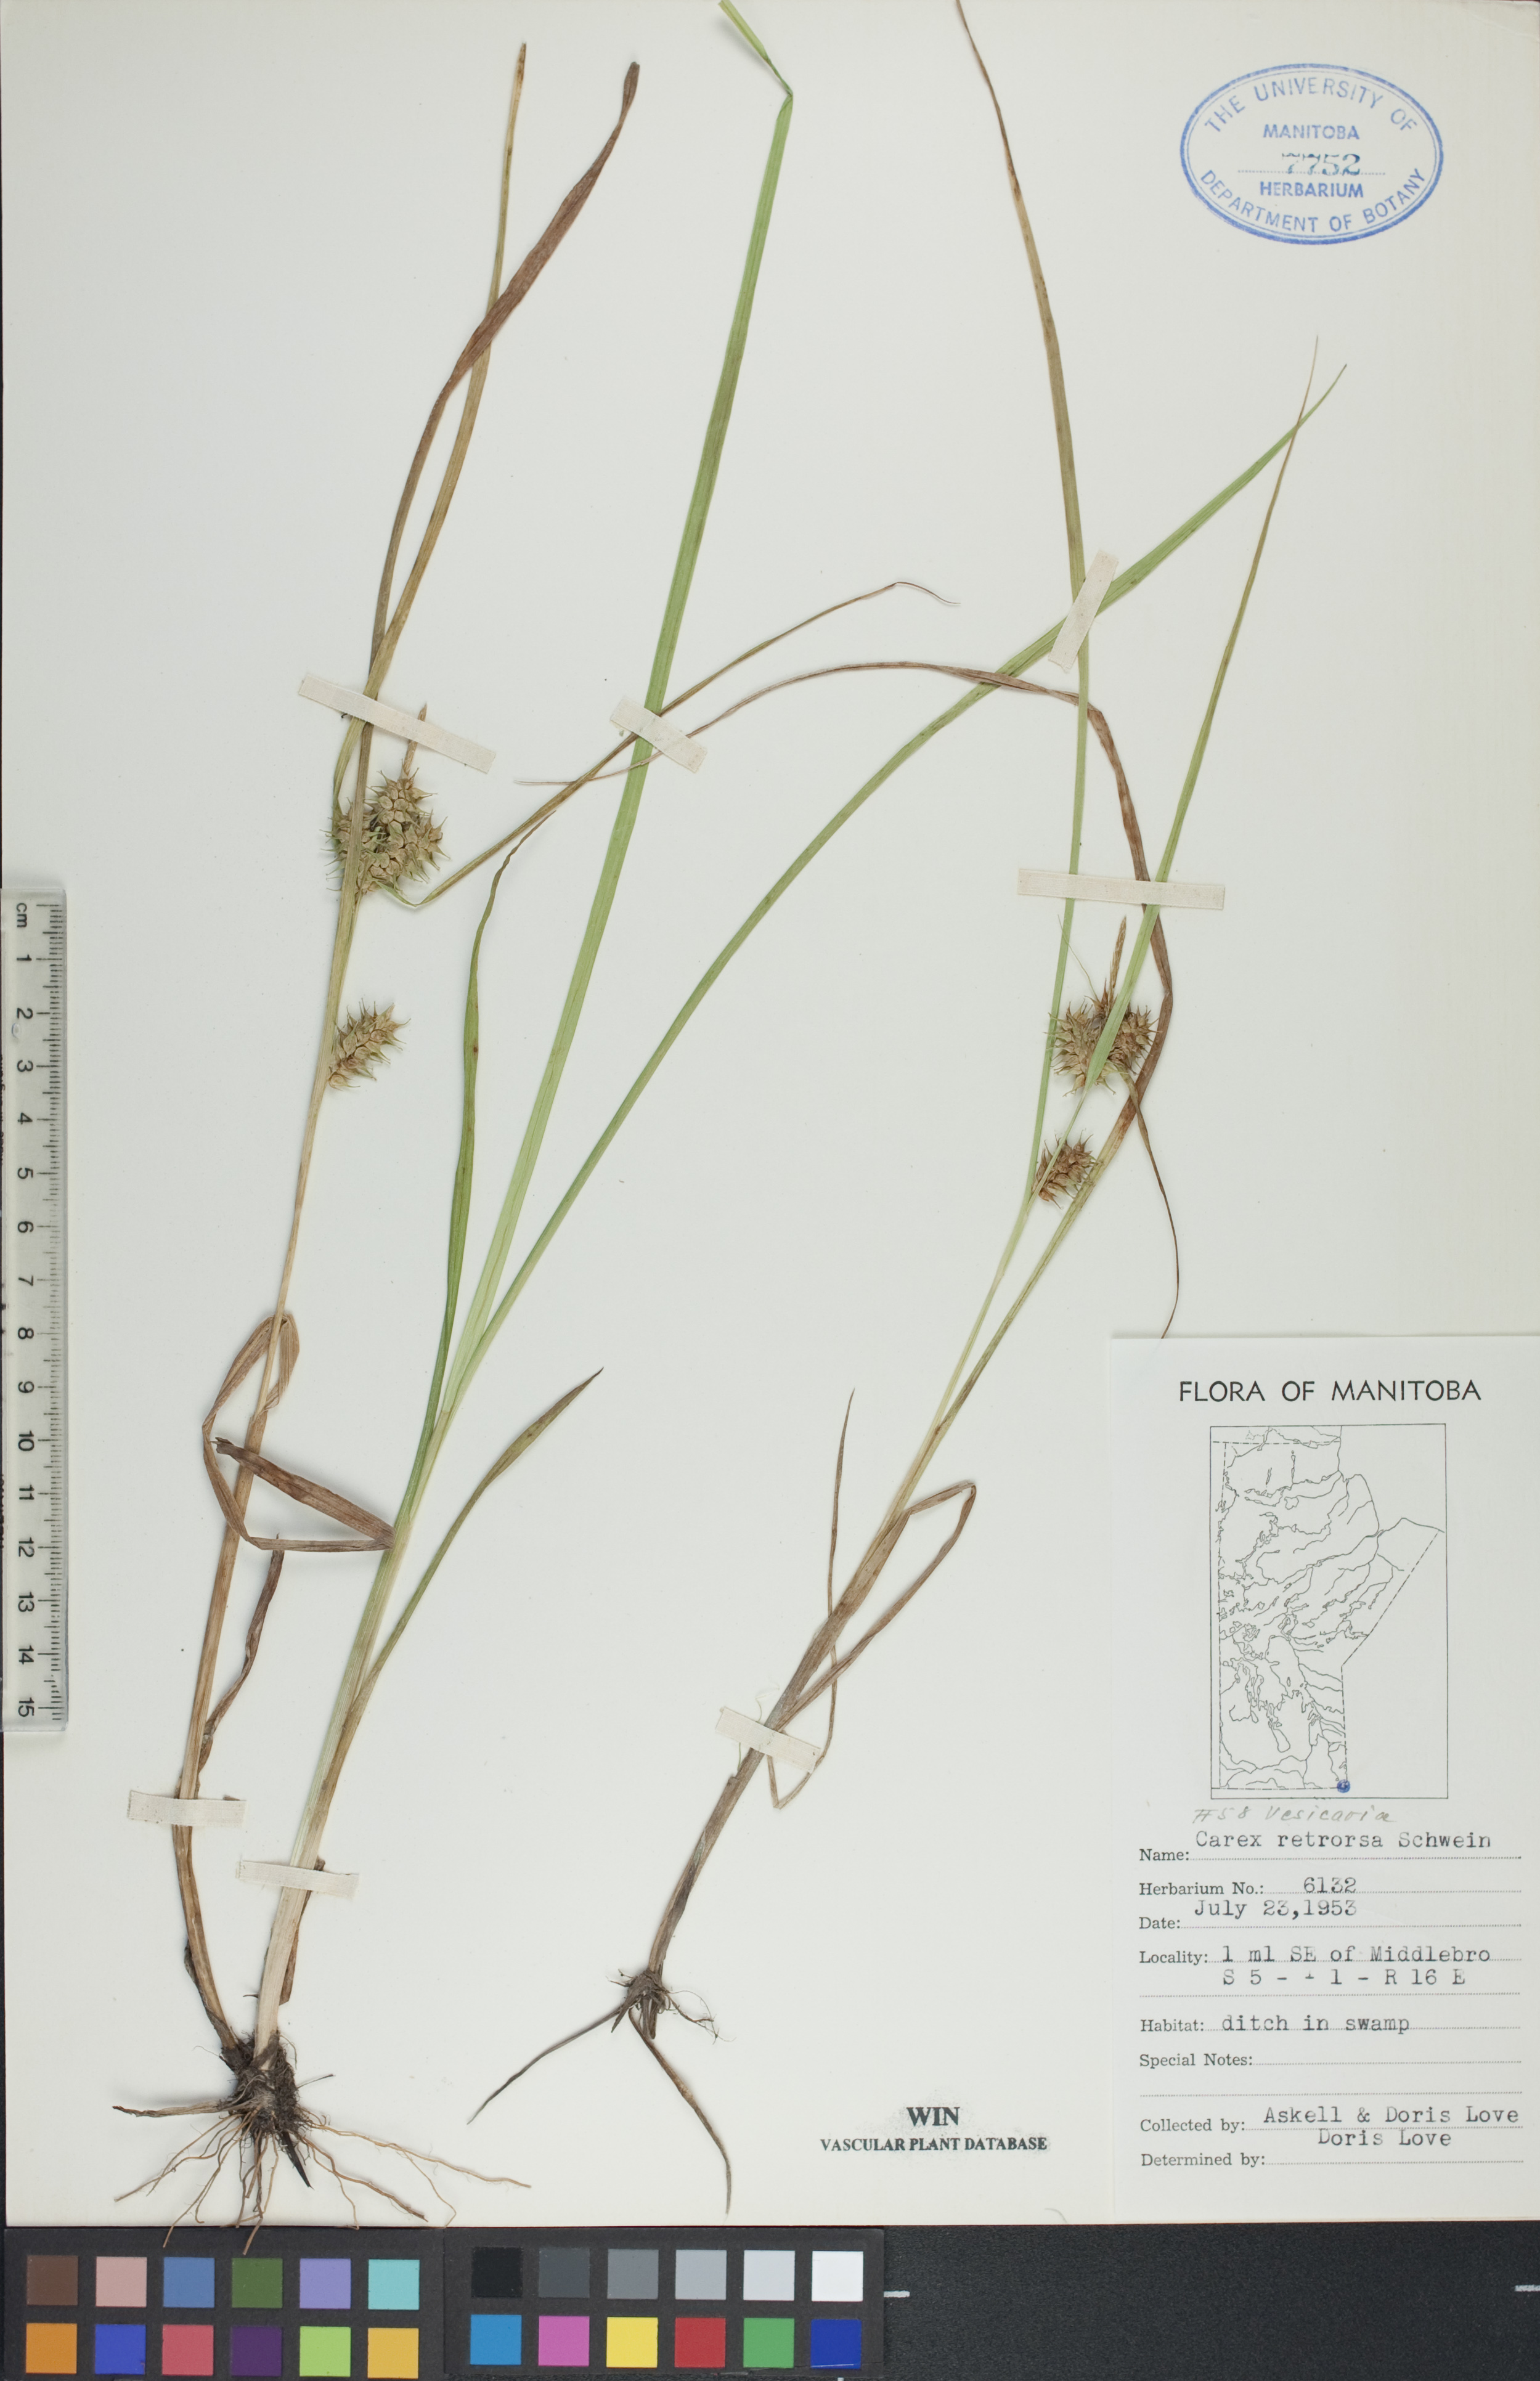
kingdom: Plantae
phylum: Tracheophyta
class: Liliopsida
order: Poales
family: Cyperaceae
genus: Carex
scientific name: Carex retrorsa
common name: Knot-sheath sedge
